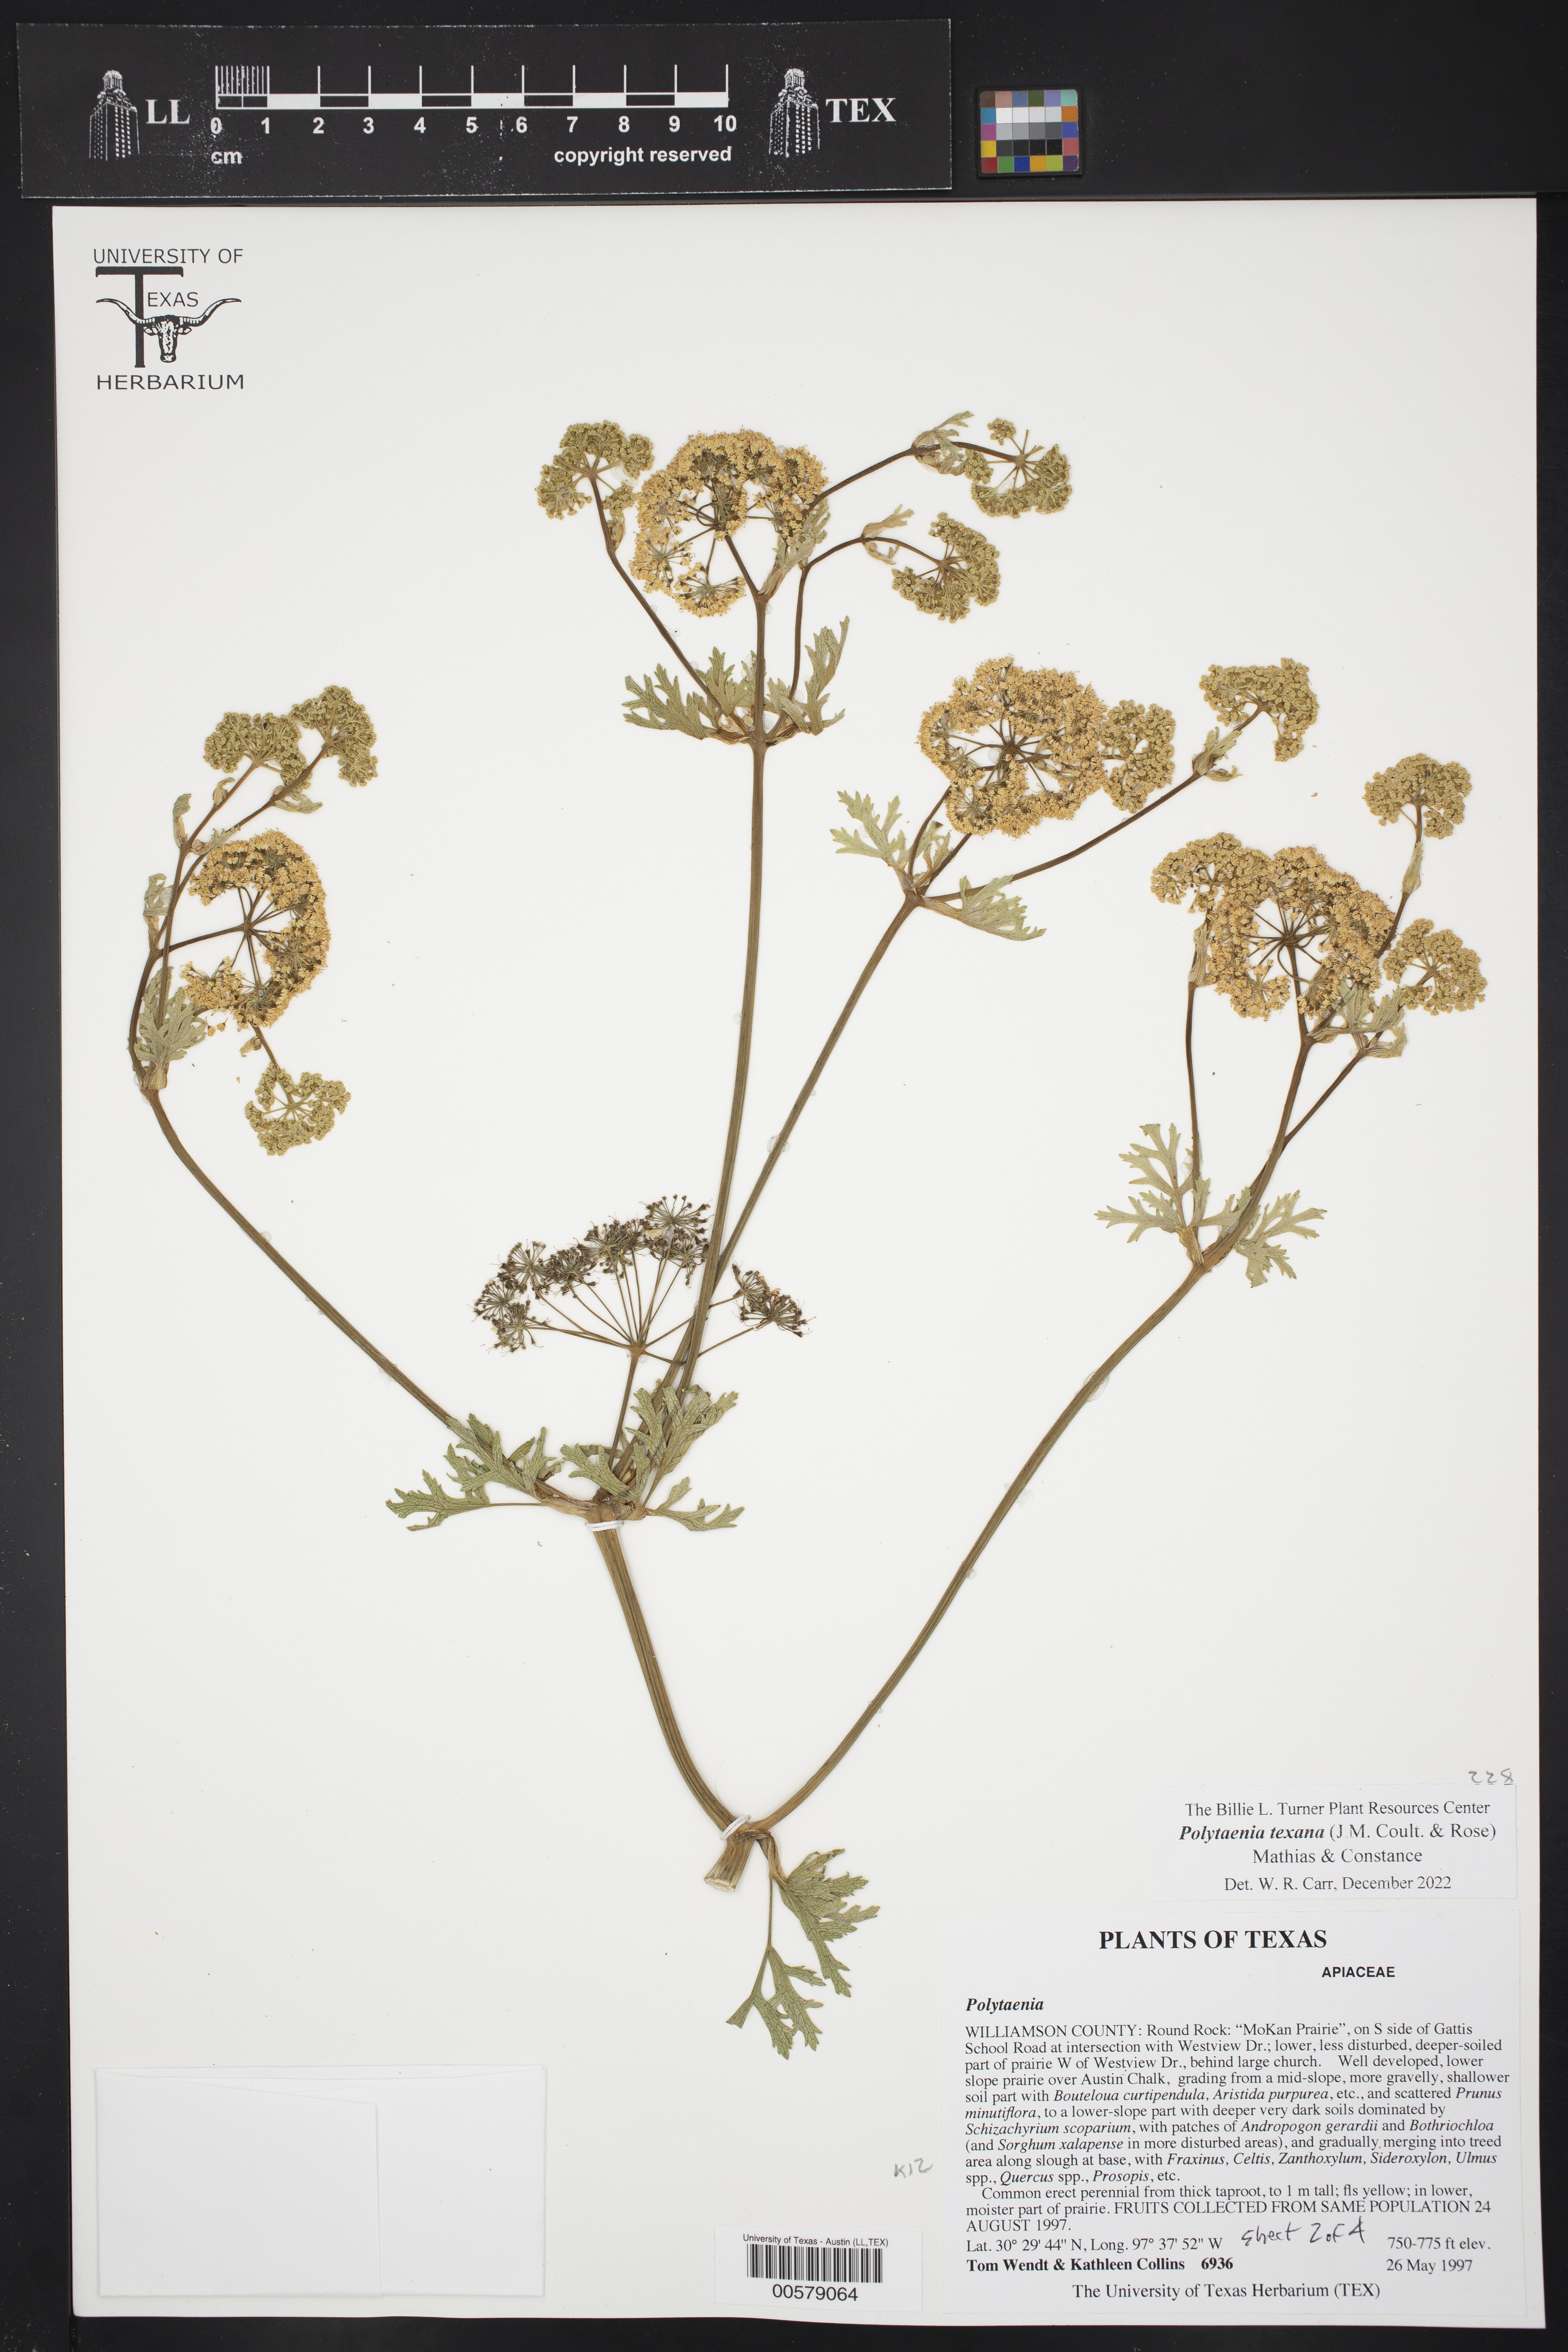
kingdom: Plantae
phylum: Tracheophyta
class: Magnoliopsida
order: Apiales
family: Apiaceae
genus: Polytaenia
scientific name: Polytaenia texana
